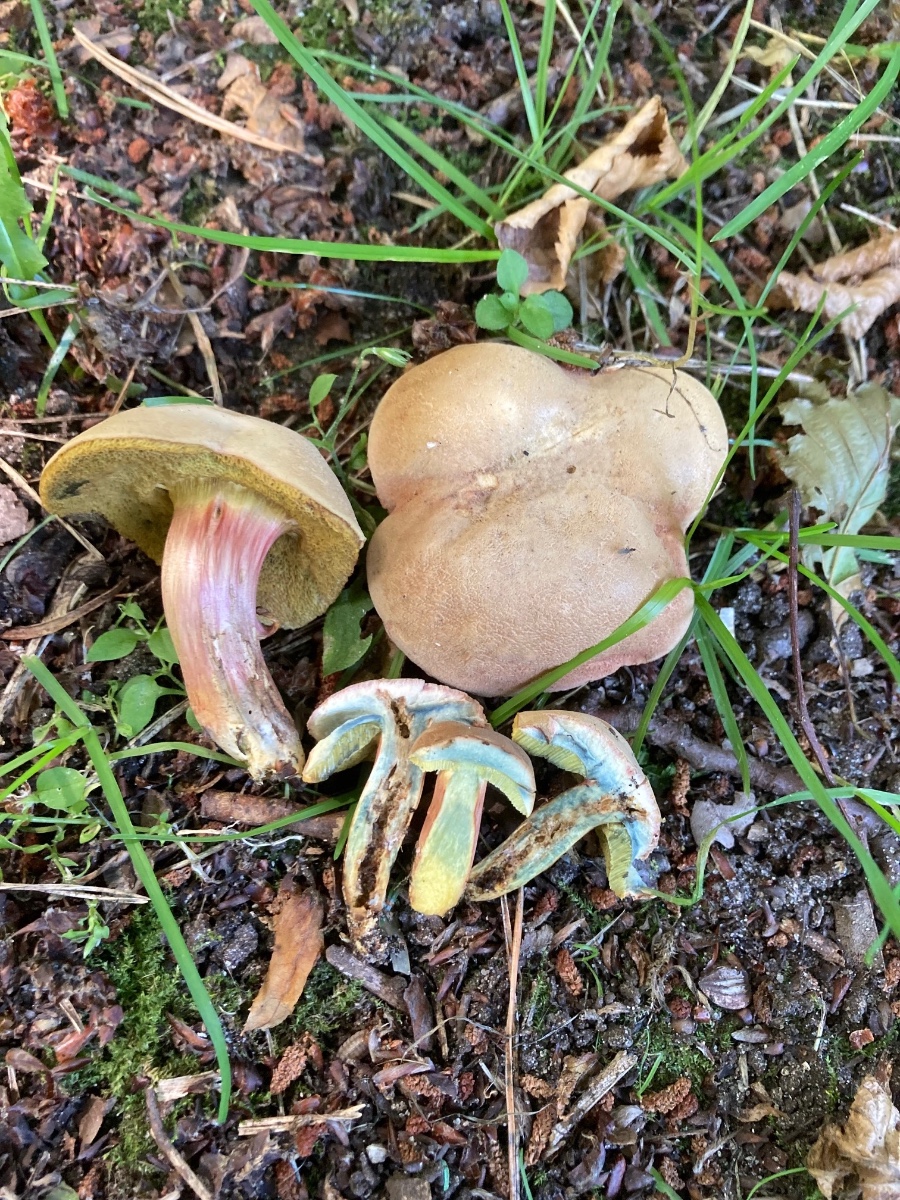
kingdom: Fungi
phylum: Basidiomycota
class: Agaricomycetes
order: Boletales
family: Boletaceae
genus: Hortiboletus
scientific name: Hortiboletus bubalinus
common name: aurora-rørhat
